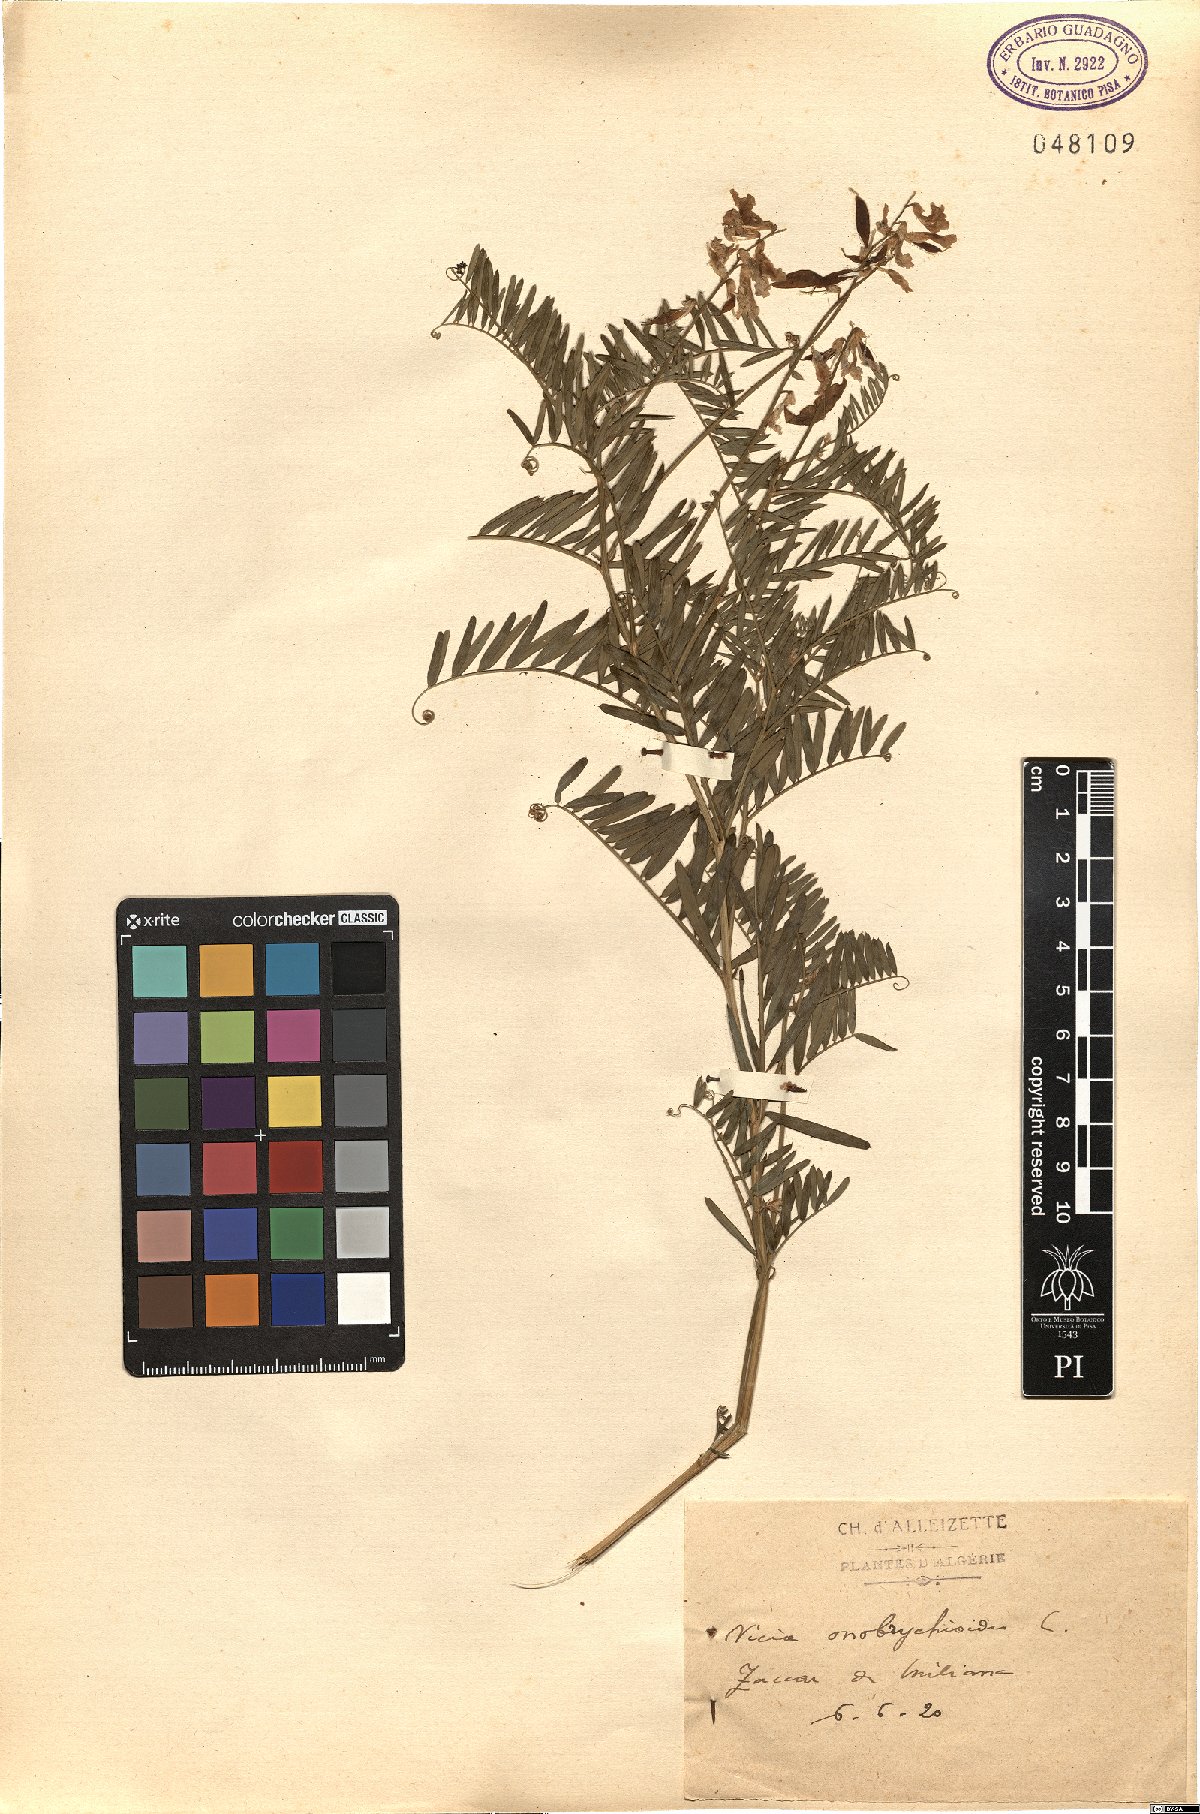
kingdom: Plantae
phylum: Tracheophyta
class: Magnoliopsida
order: Fabales
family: Fabaceae
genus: Vicia
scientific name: Vicia onobrychioides
